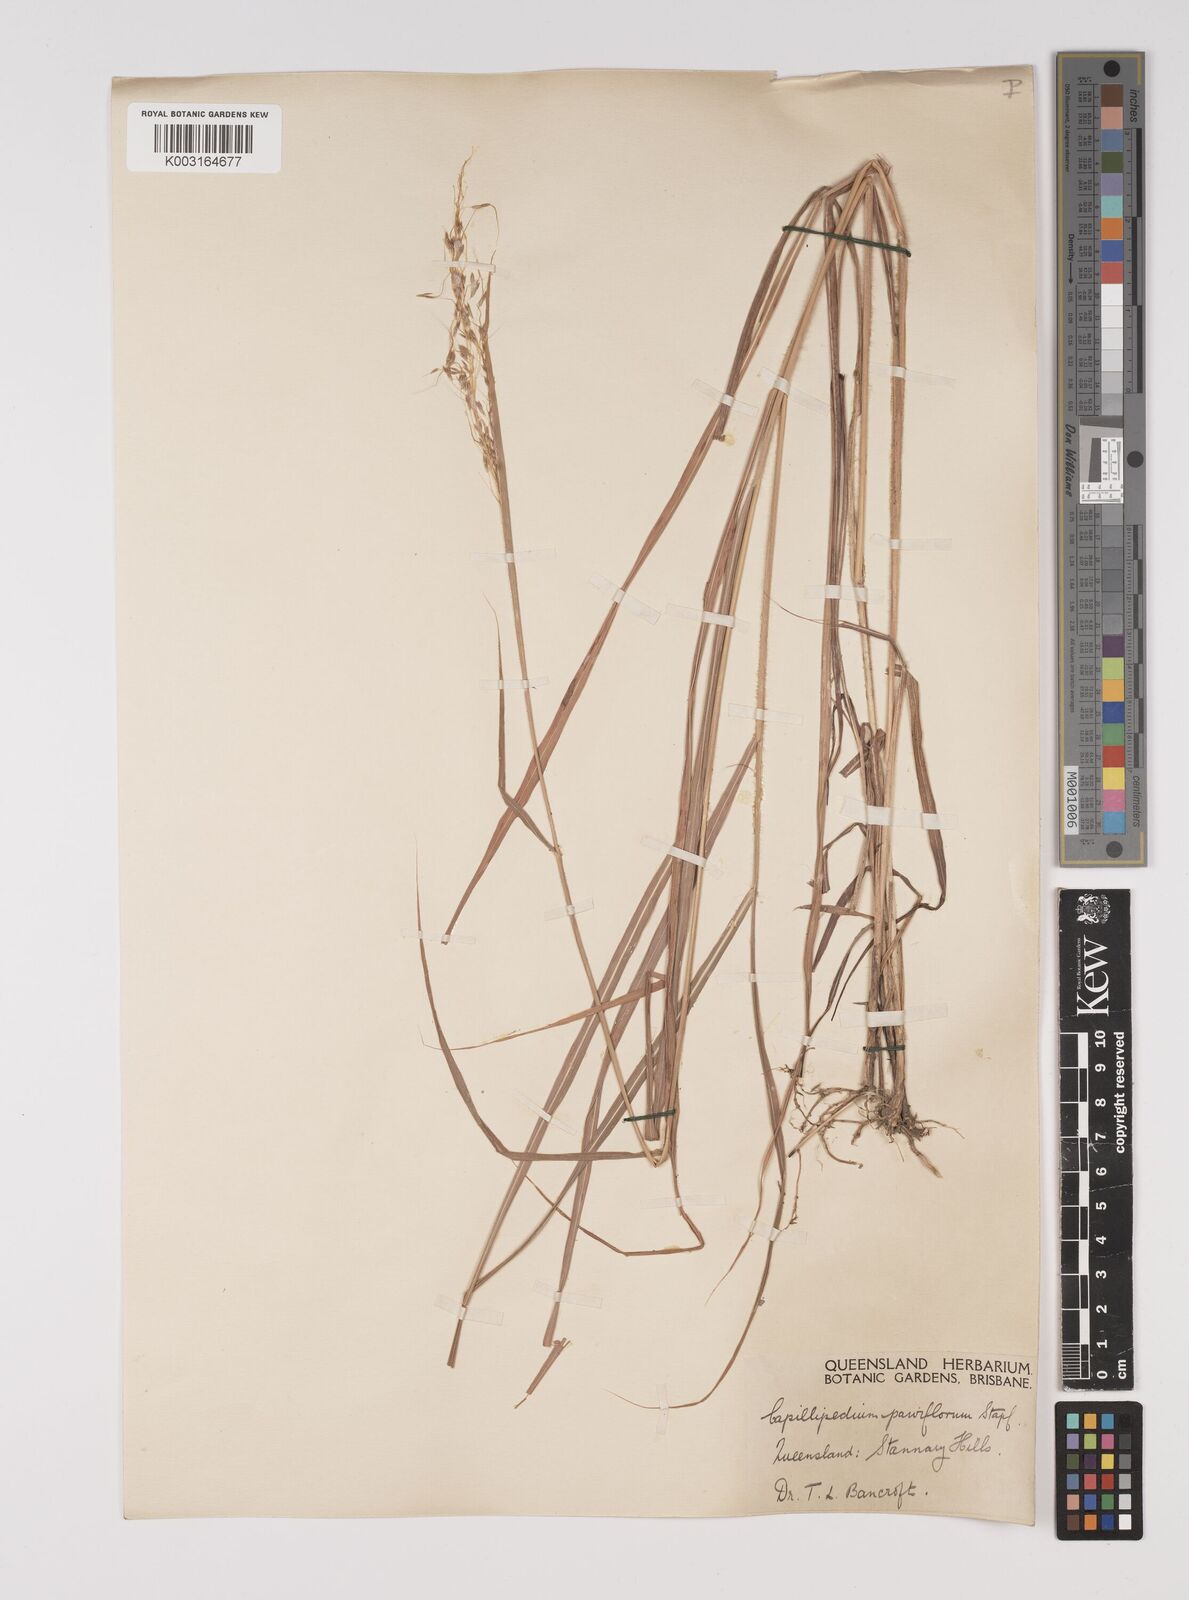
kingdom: Plantae
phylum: Tracheophyta
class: Liliopsida
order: Poales
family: Poaceae
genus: Capillipedium
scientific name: Capillipedium parviflorum
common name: Golden-beard
